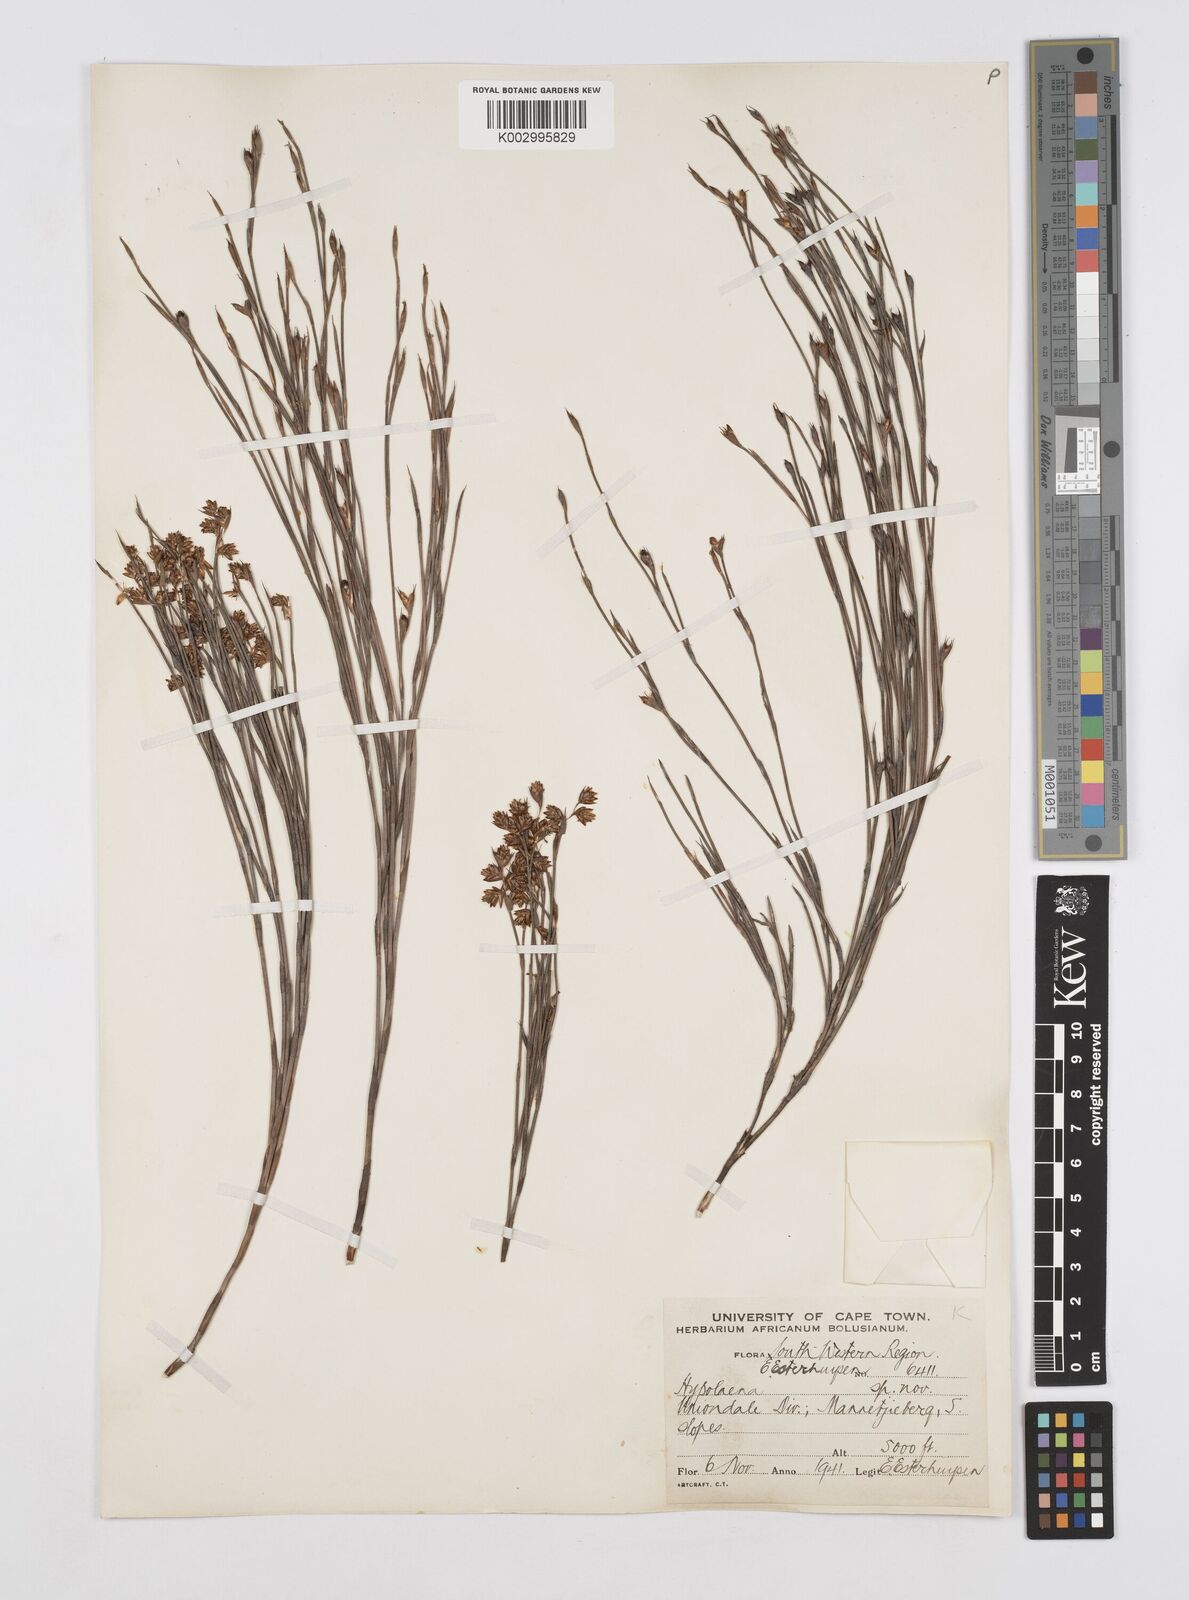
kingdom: Plantae
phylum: Tracheophyta
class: Liliopsida
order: Poales
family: Restionaceae
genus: Mastersiella
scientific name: Mastersiella spathulata
